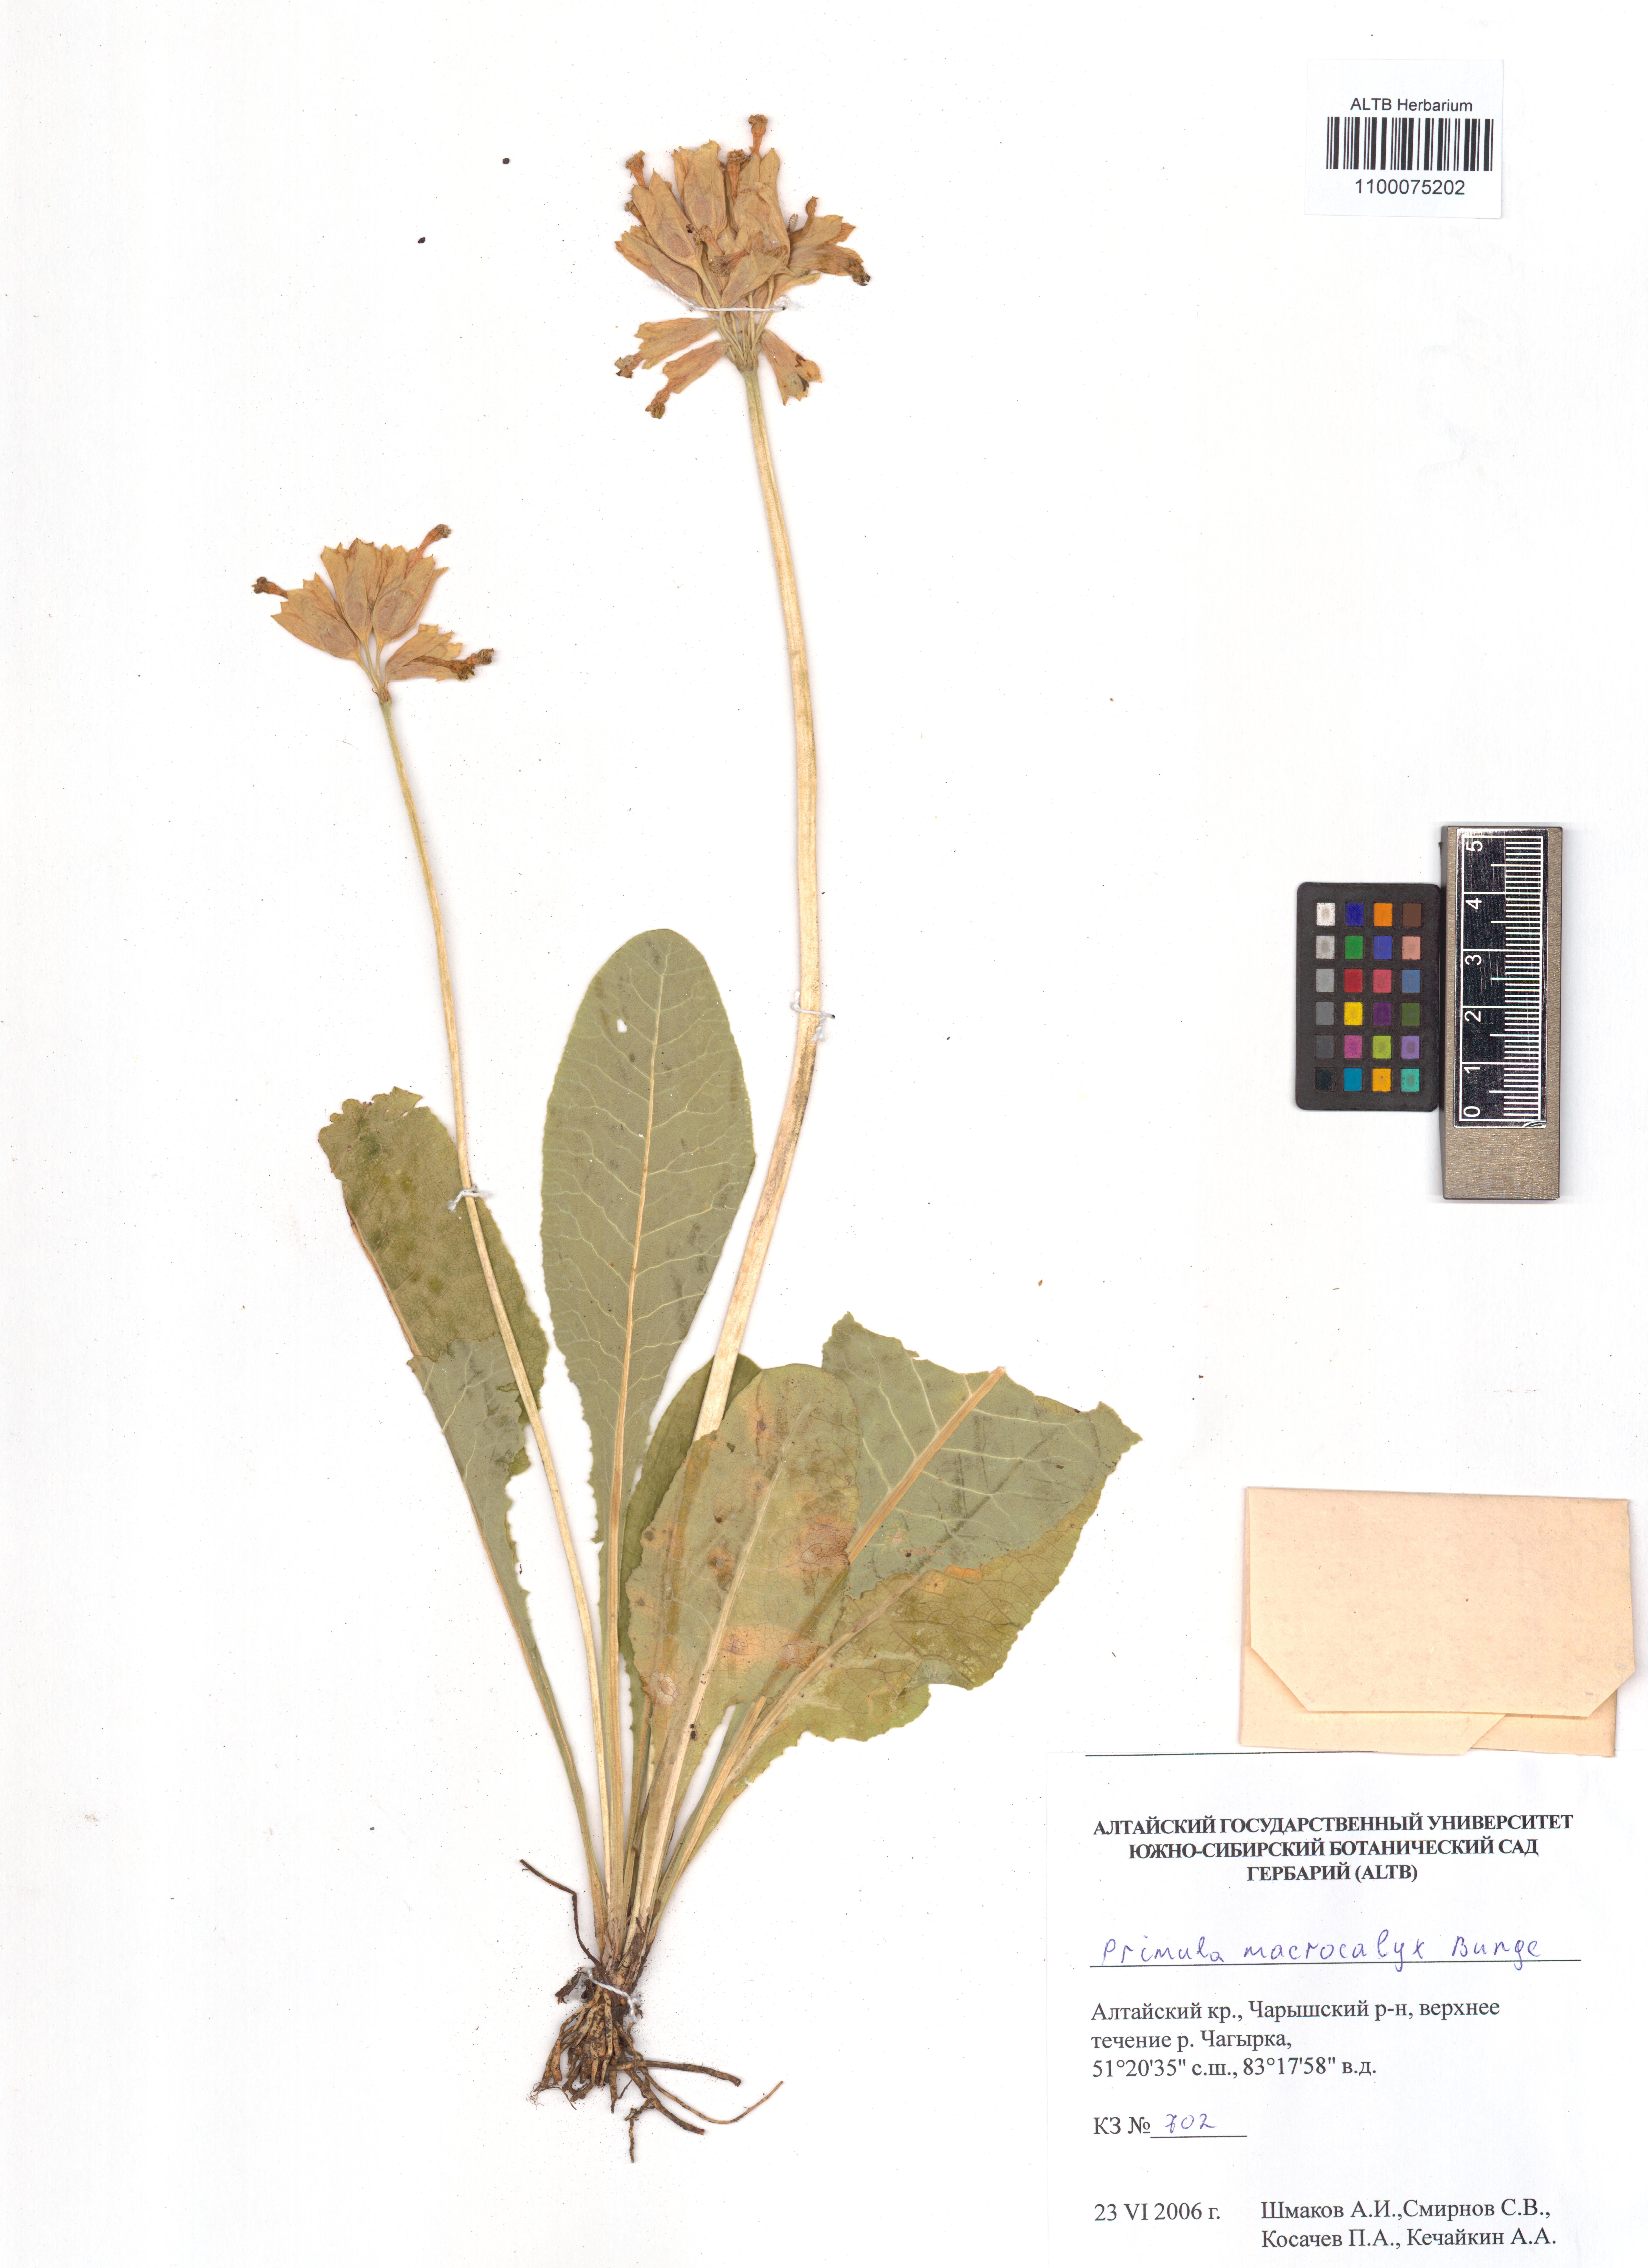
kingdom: Plantae
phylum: Tracheophyta
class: Magnoliopsida
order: Ericales
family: Primulaceae
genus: Primula
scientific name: Primula veris
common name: Cowslip
